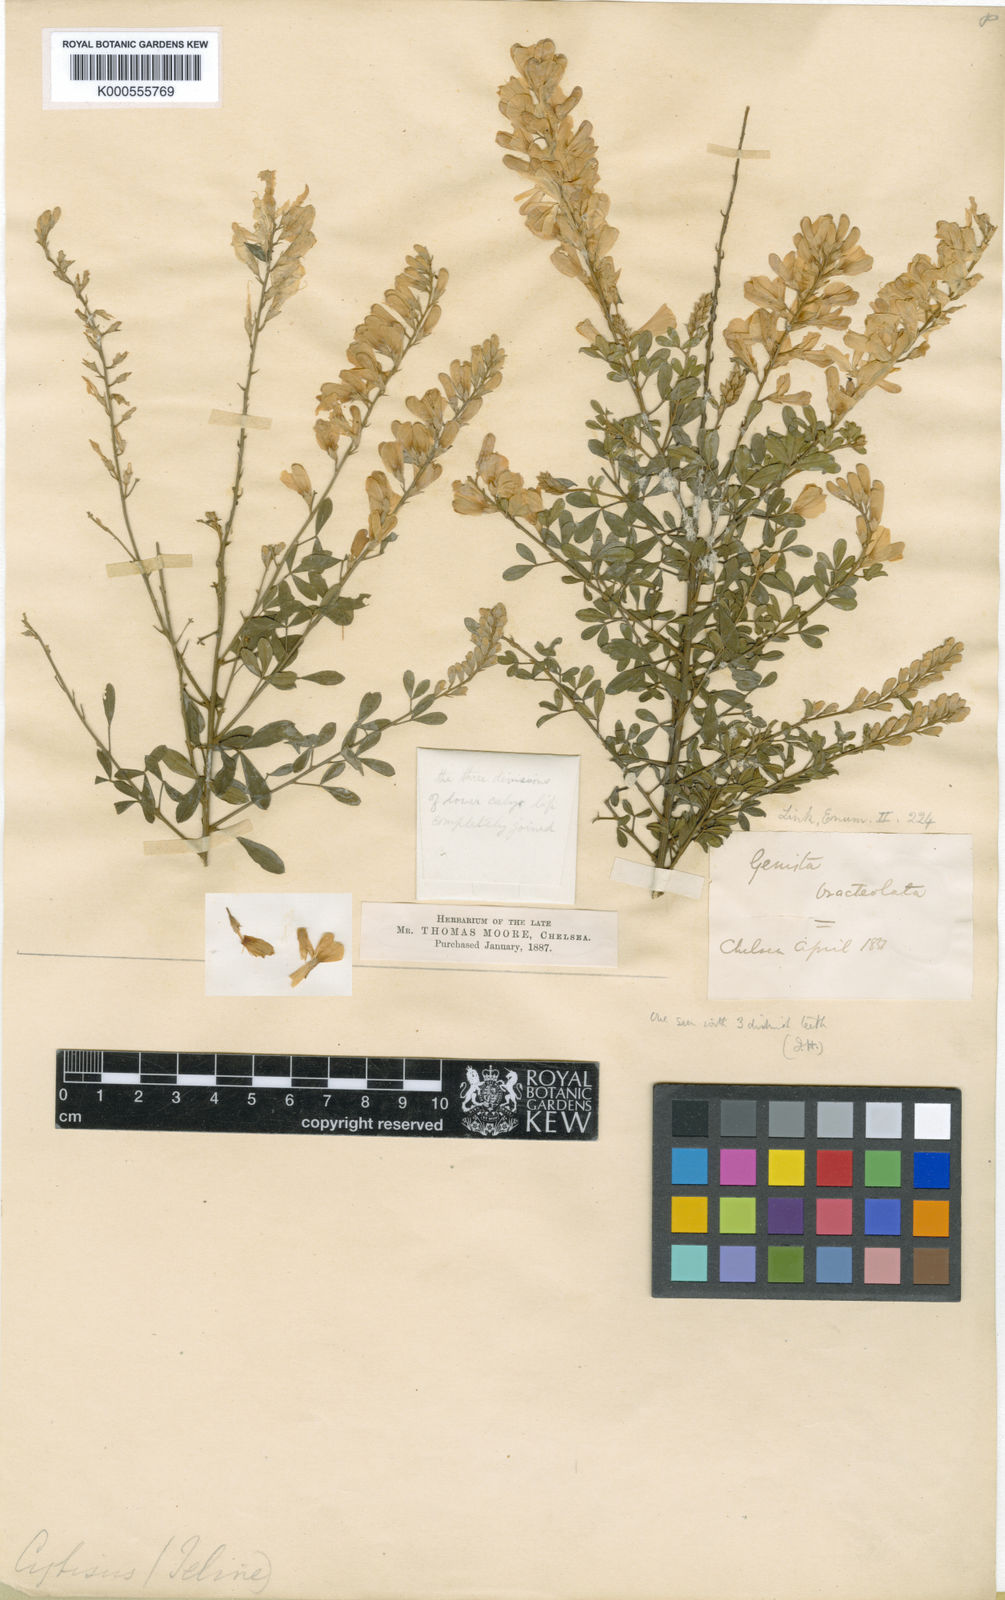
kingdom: Plantae
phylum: Tracheophyta
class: Magnoliopsida
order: Fabales
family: Fabaceae
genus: Genista
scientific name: Genista canariensis
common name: Canary broom
